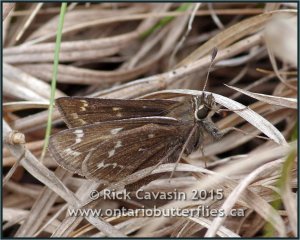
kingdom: Animalia
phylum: Arthropoda
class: Insecta
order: Lepidoptera
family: Hesperiidae
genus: Hesperia
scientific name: Hesperia metea
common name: Cobweb Skipper
